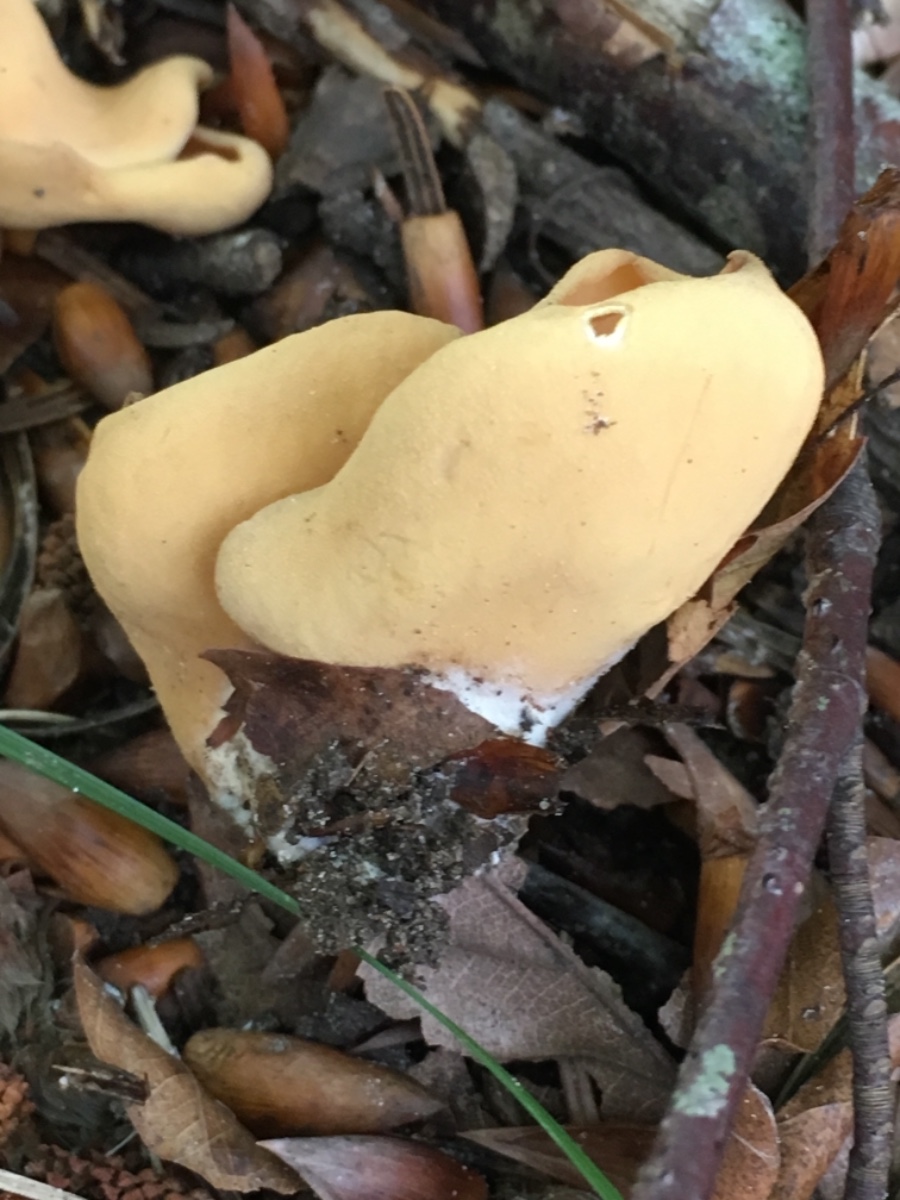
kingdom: Fungi
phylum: Ascomycota
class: Pezizomycetes
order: Pezizales
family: Otideaceae
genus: Otidea
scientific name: Otidea onotica
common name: æsel-ørebæger
